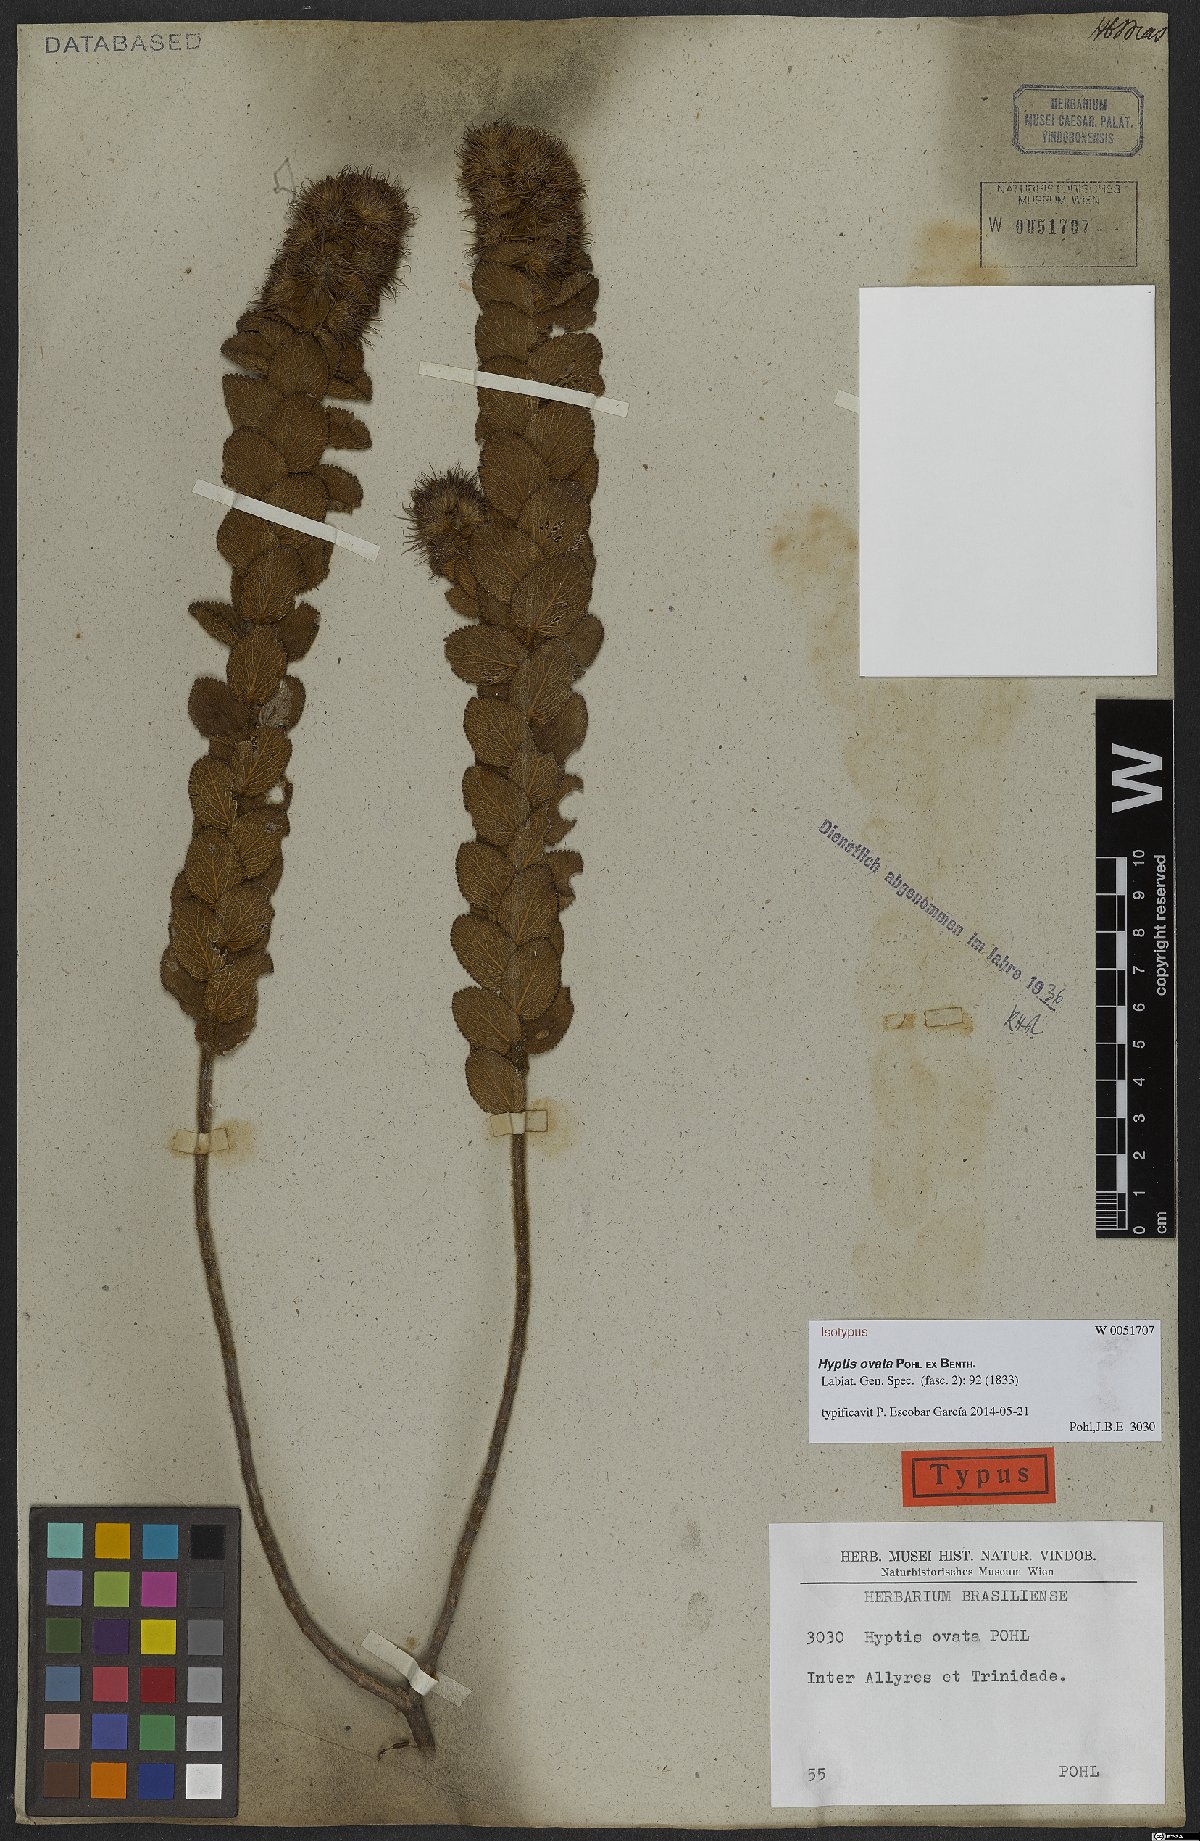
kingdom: Plantae
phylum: Tracheophyta
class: Magnoliopsida
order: Lamiales
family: Lamiaceae
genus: Hyptis
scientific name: Hyptis ovata
